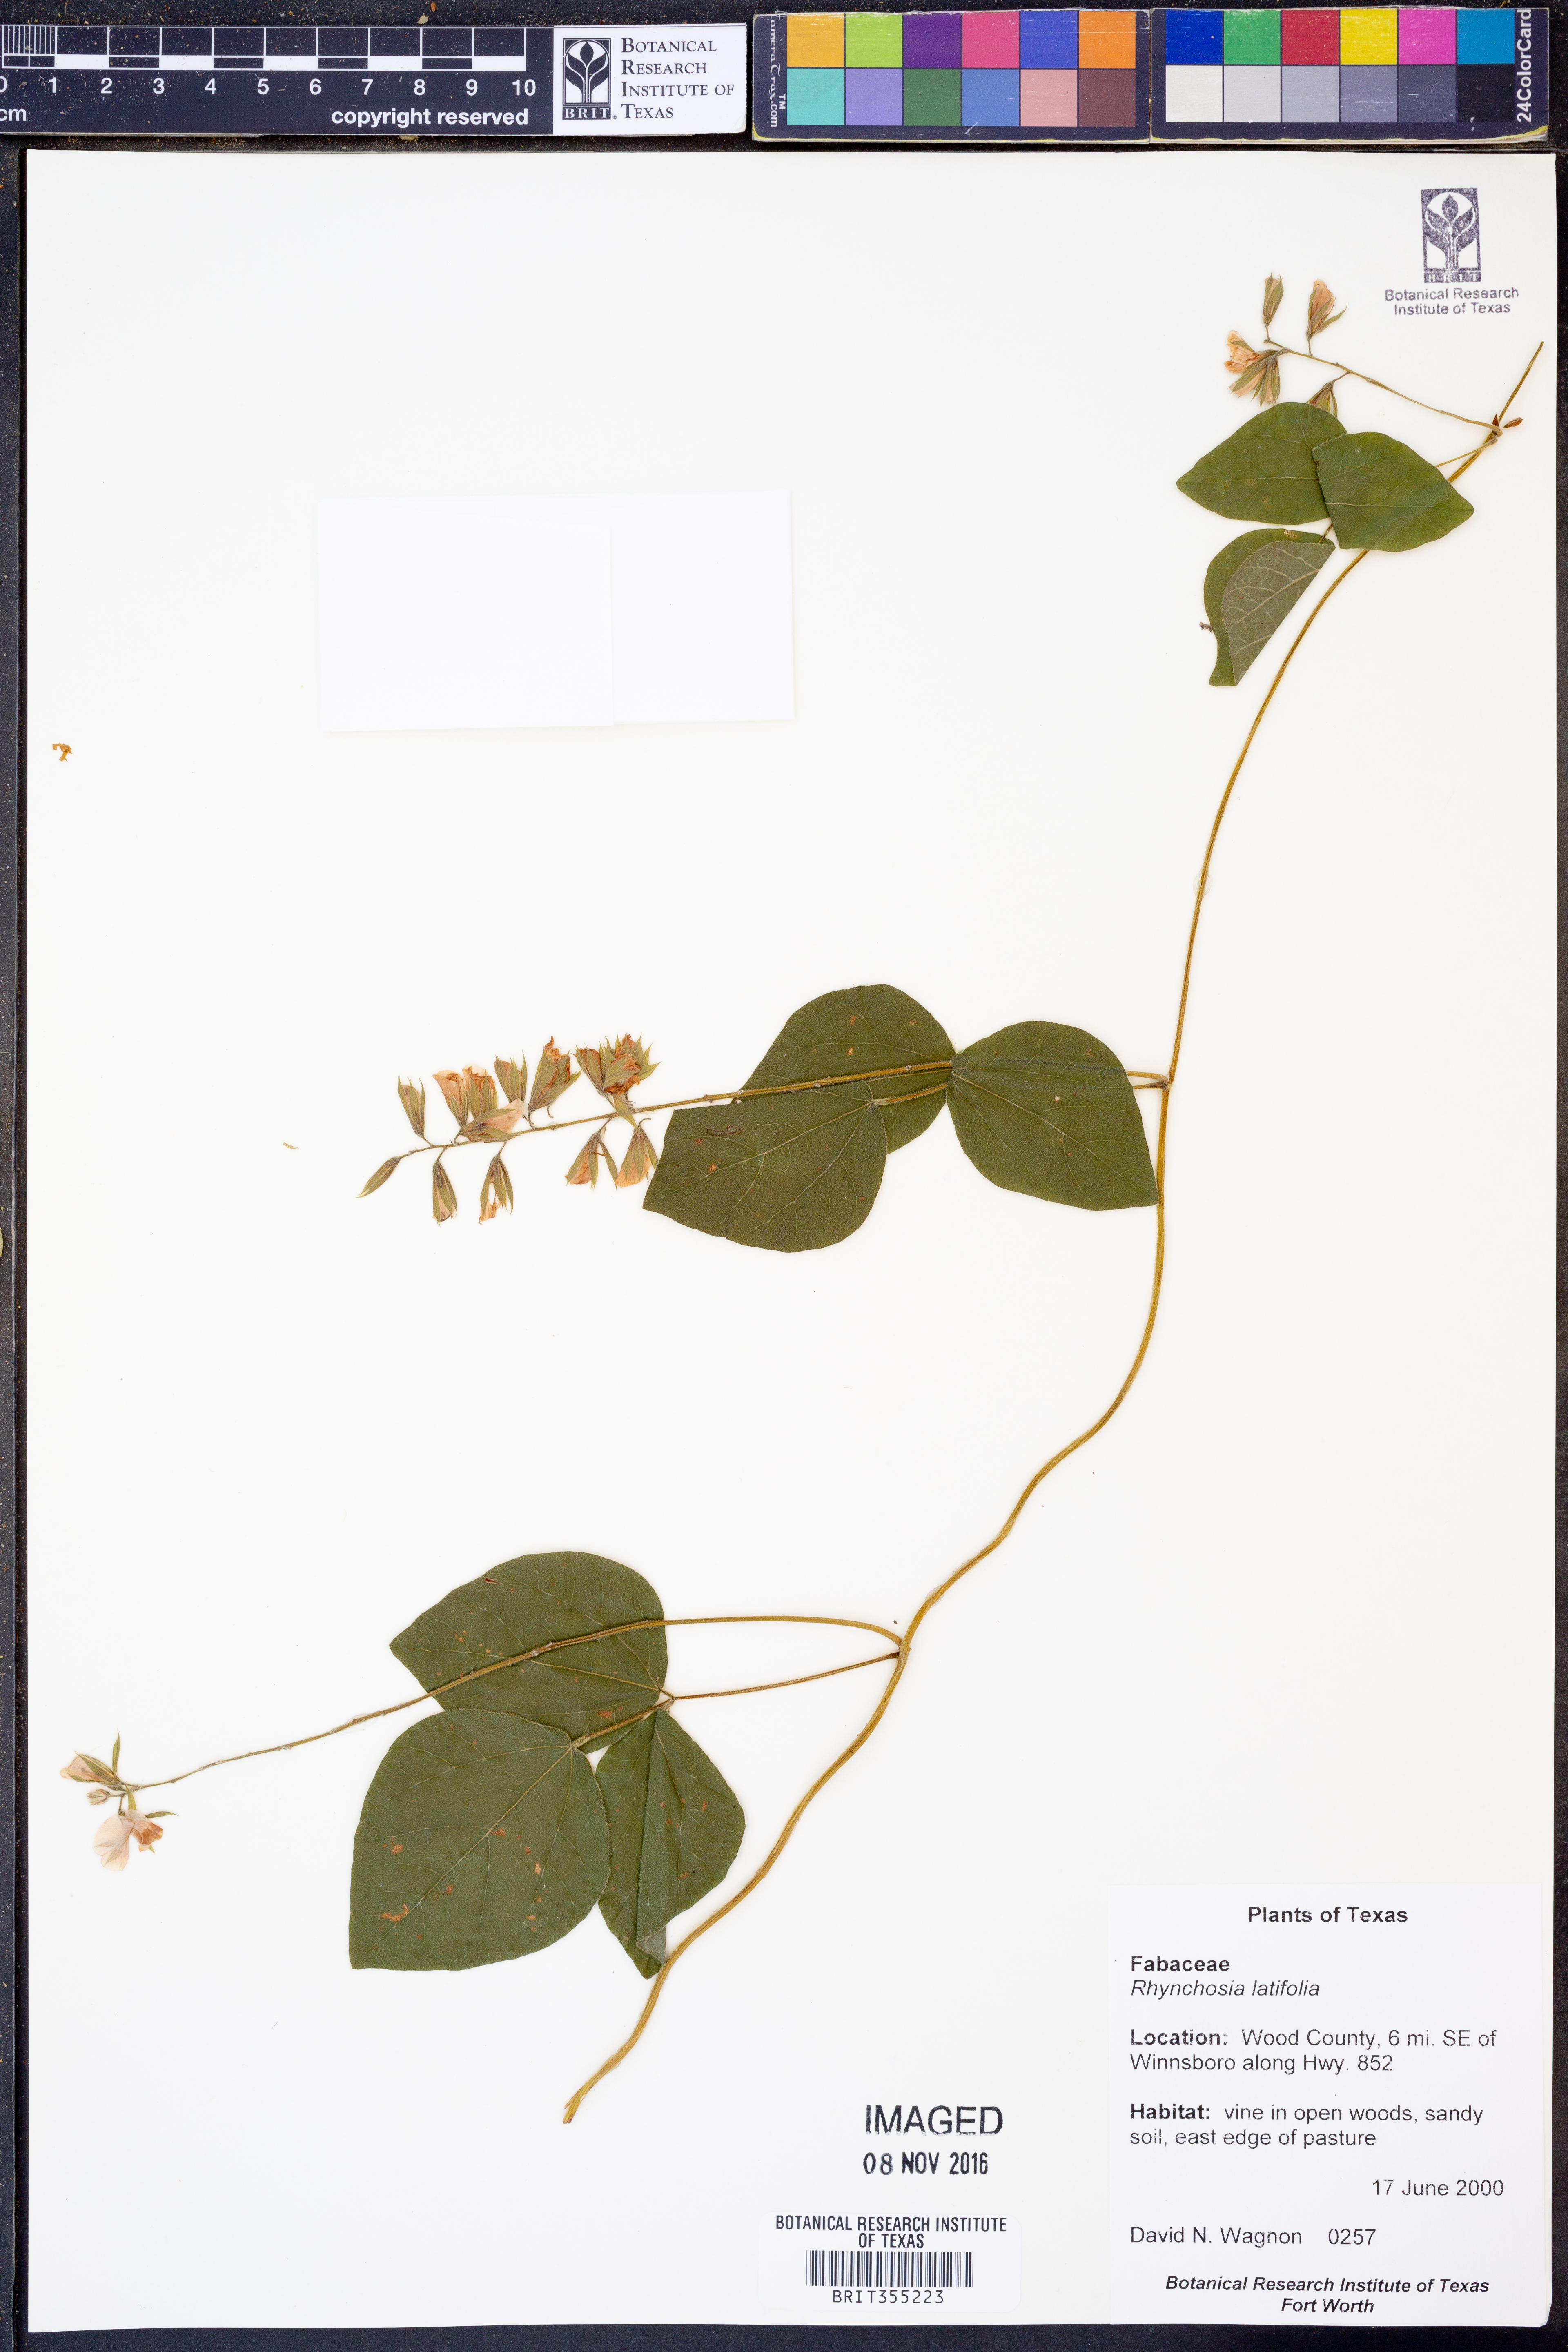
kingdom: Plantae
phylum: Tracheophyta
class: Magnoliopsida
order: Fabales
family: Fabaceae
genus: Rhynchosia
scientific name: Rhynchosia latifolia
